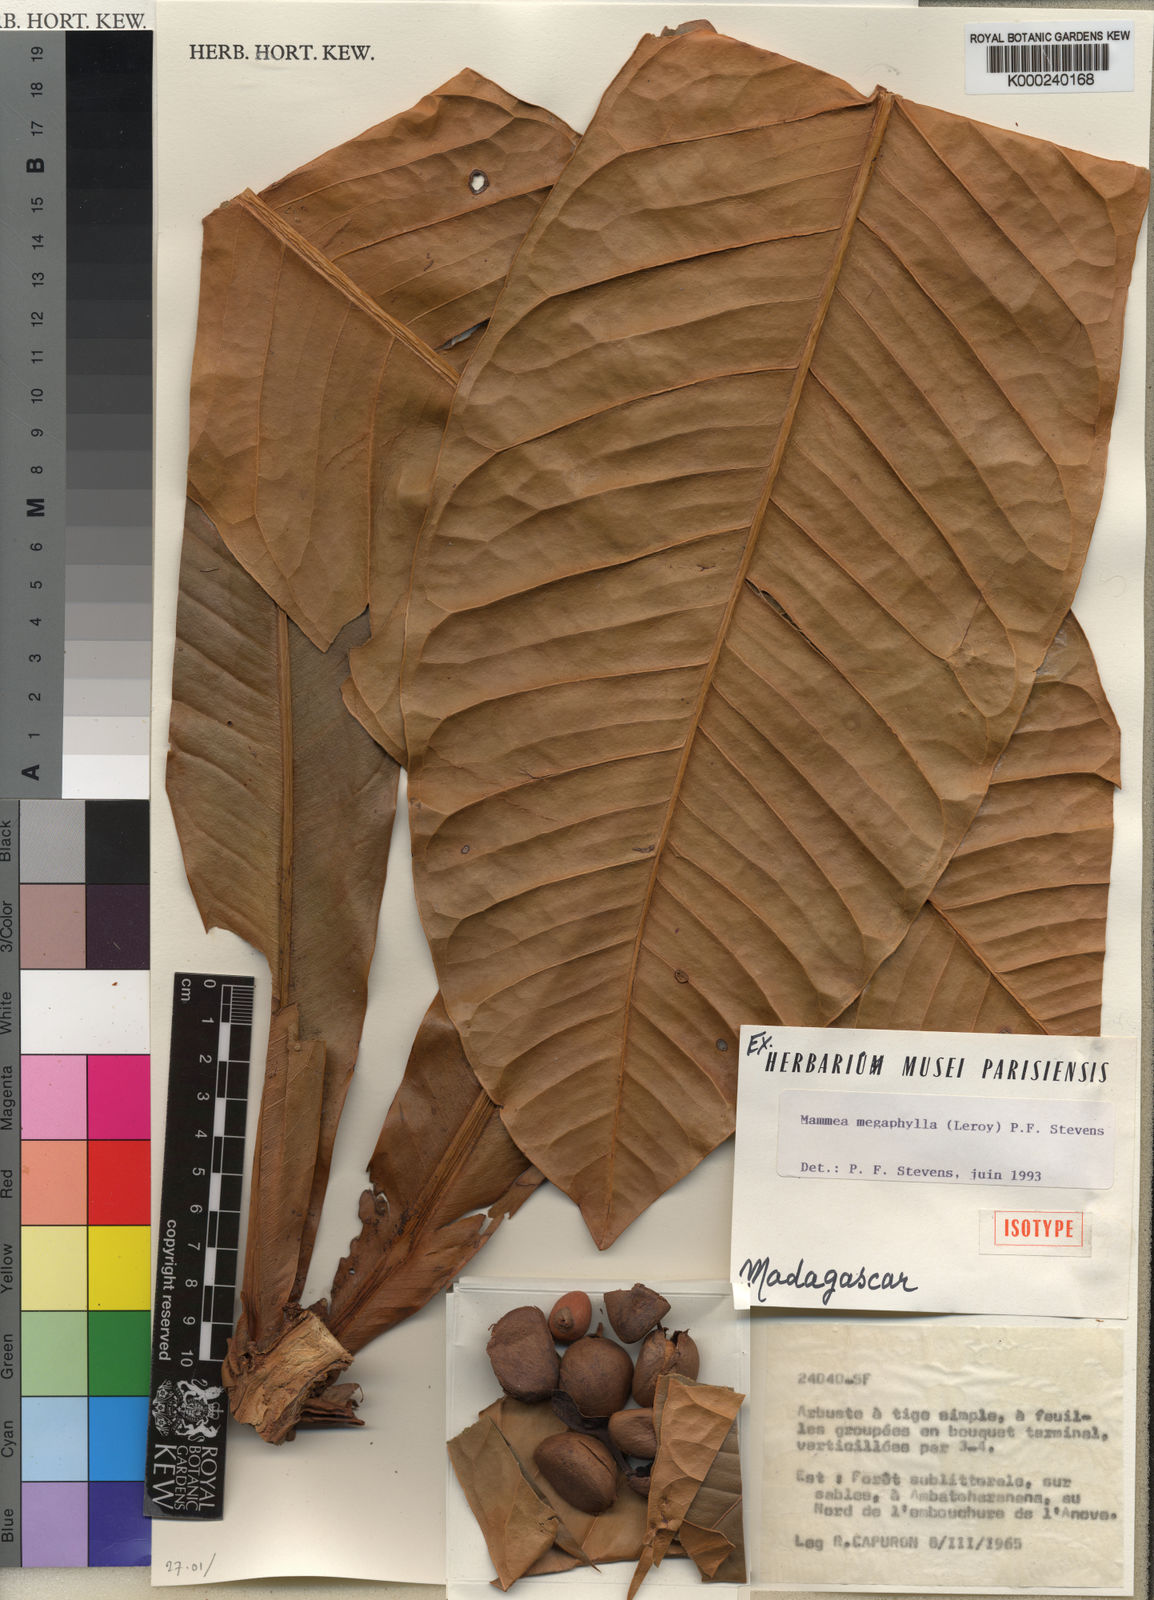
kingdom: Plantae
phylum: Tracheophyta
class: Magnoliopsida
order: Malpighiales
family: Calophyllaceae
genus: Mammea
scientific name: Mammea
